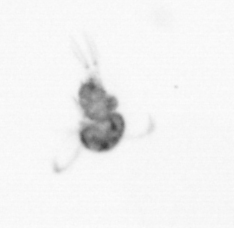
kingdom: Animalia
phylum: Arthropoda
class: Copepoda
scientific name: Copepoda
